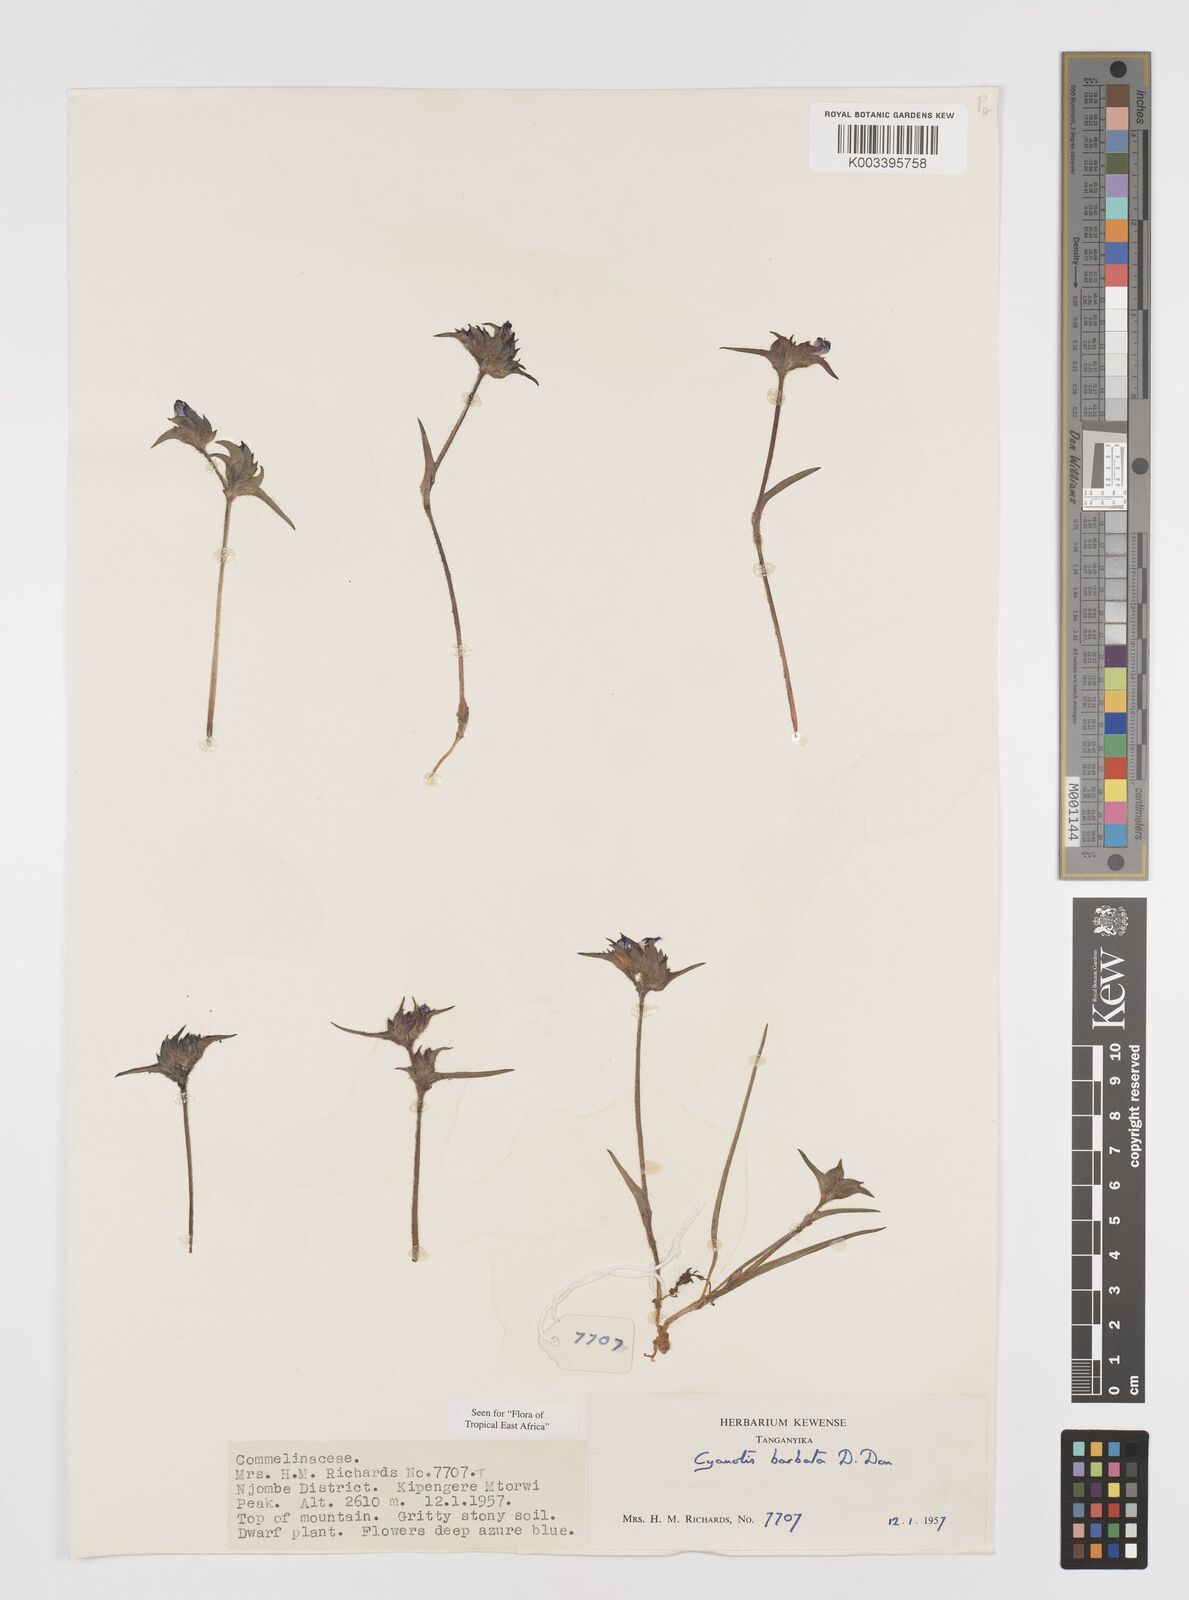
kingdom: Plantae
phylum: Tracheophyta
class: Liliopsida
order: Commelinales
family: Commelinaceae
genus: Cyanotis
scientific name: Cyanotis vaga
